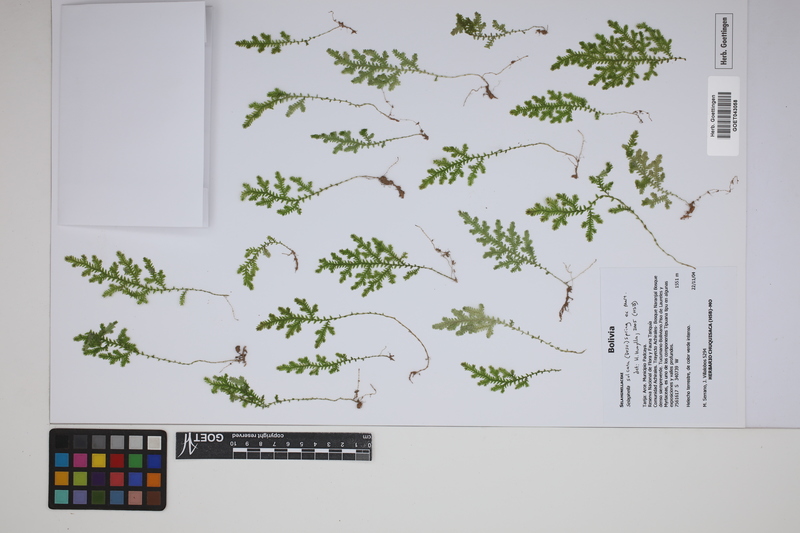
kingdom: Plantae
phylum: Tracheophyta
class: Lycopodiopsida
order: Selaginellales
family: Selaginellaceae
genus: Selaginella
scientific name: Selaginella sulcata
